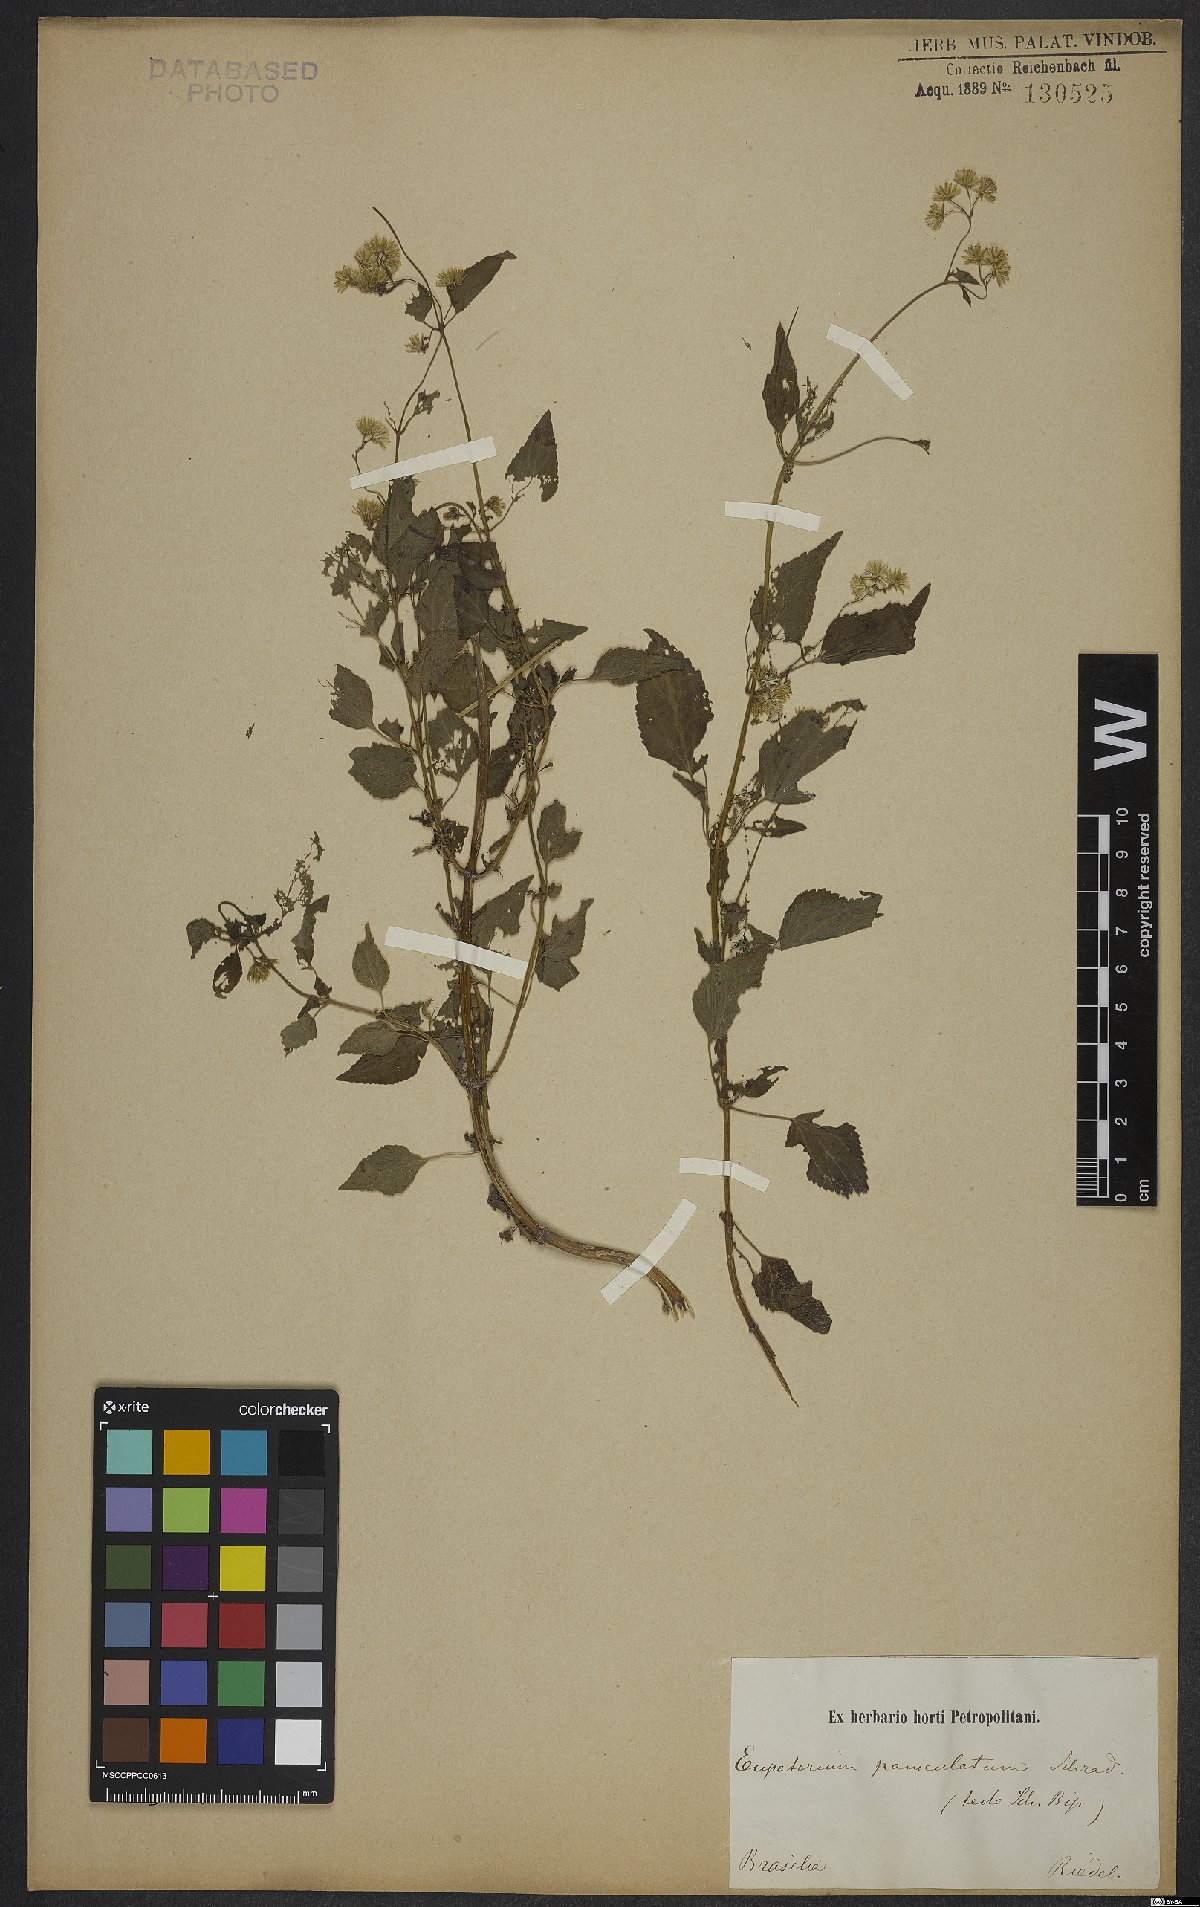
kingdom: Plantae
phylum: Tracheophyta
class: Magnoliopsida
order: Asterales
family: Asteraceae
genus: Fleischmannia
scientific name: Fleischmannia microstemon
